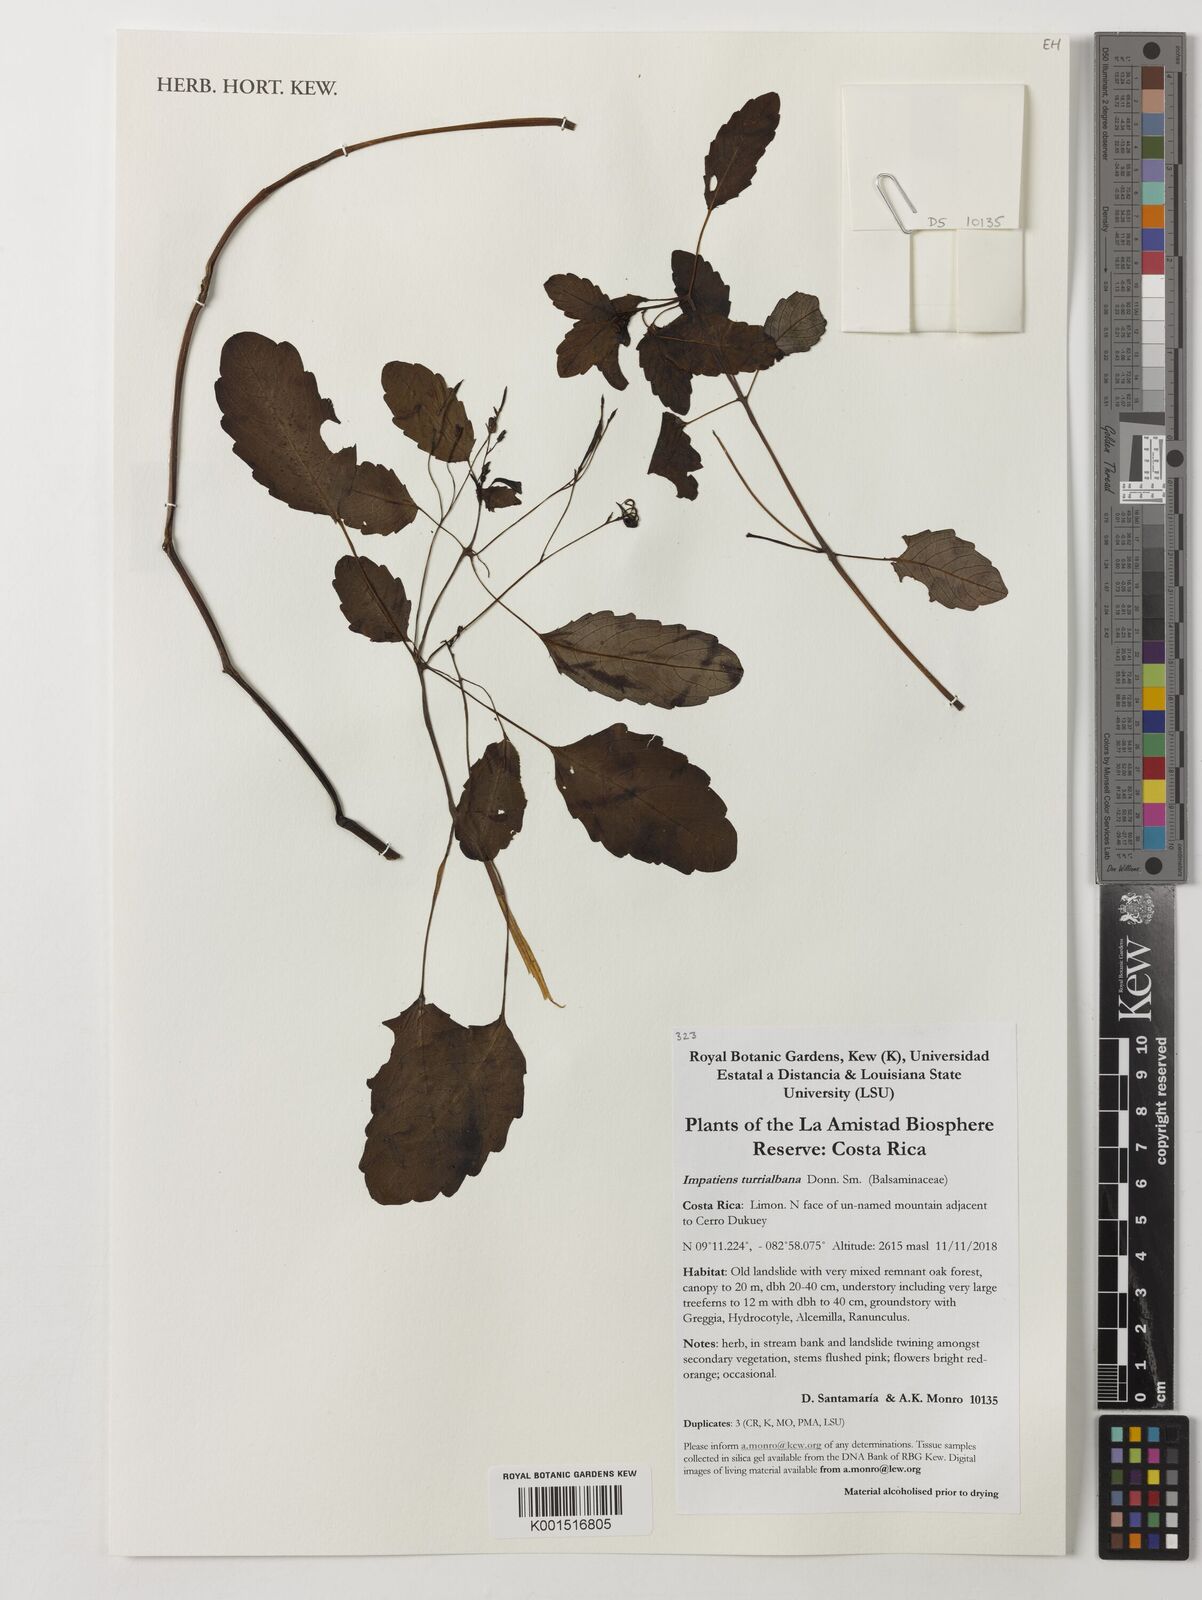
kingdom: Plantae
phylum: Tracheophyta
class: Magnoliopsida
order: Ericales
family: Balsaminaceae
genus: Impatiens
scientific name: Impatiens turrialbana
